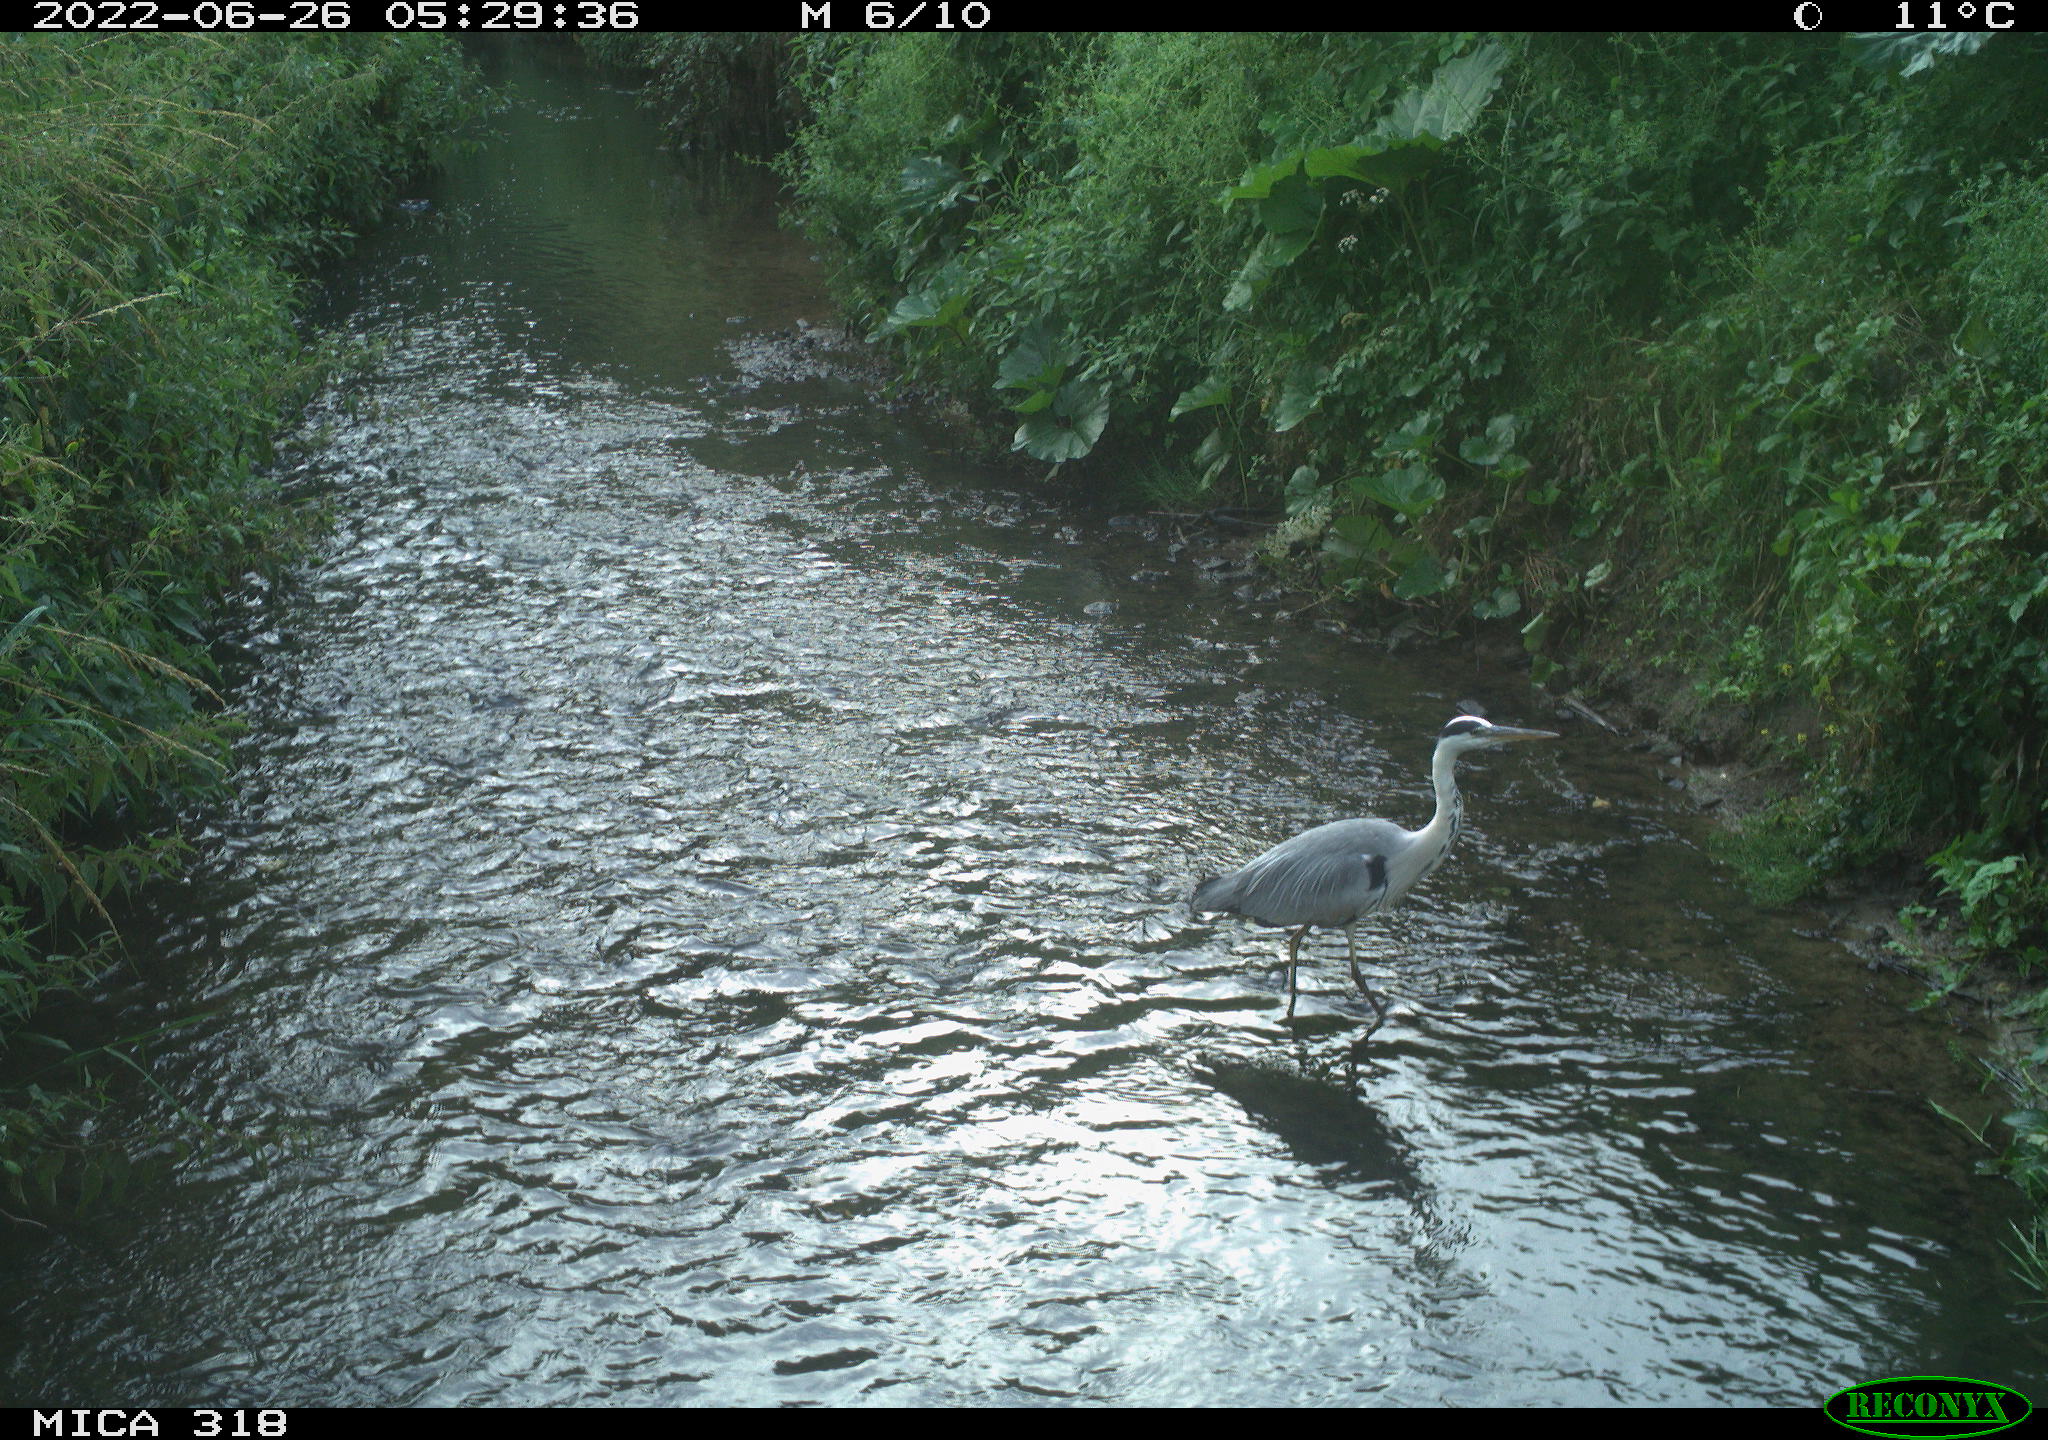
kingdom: Animalia
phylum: Chordata
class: Aves
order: Pelecaniformes
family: Ardeidae
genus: Ardea
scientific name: Ardea
